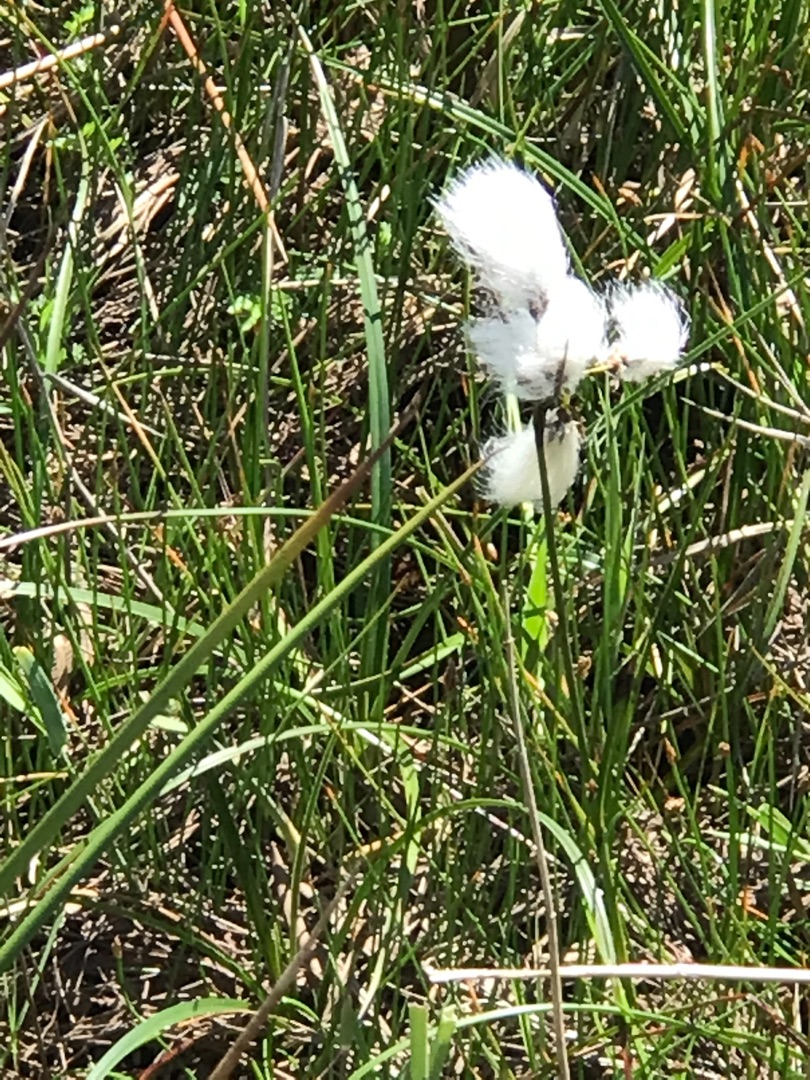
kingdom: Plantae
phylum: Tracheophyta
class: Liliopsida
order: Poales
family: Cyperaceae
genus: Eriophorum
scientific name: Eriophorum angustifolium
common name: Smalbladet kæruld
